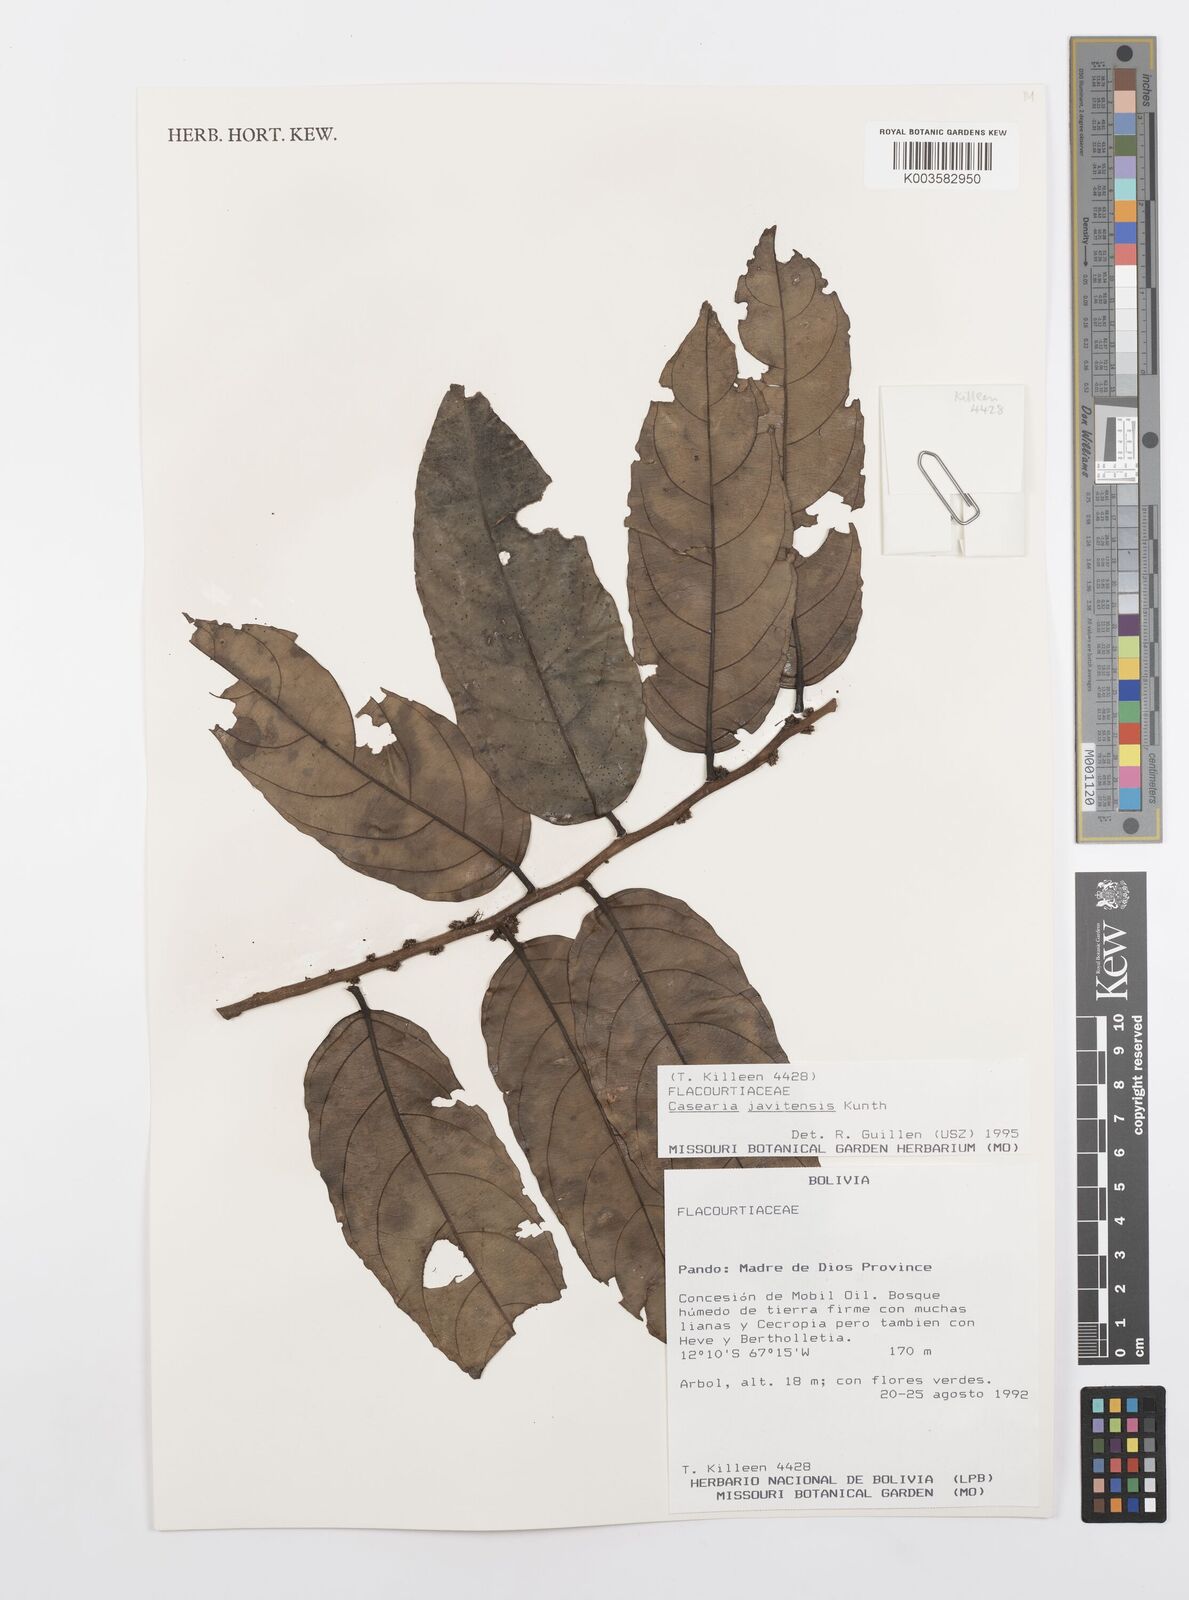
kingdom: Plantae
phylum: Tracheophyta
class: Magnoliopsida
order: Malpighiales
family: Salicaceae
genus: Piparea
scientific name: Piparea multiflora
